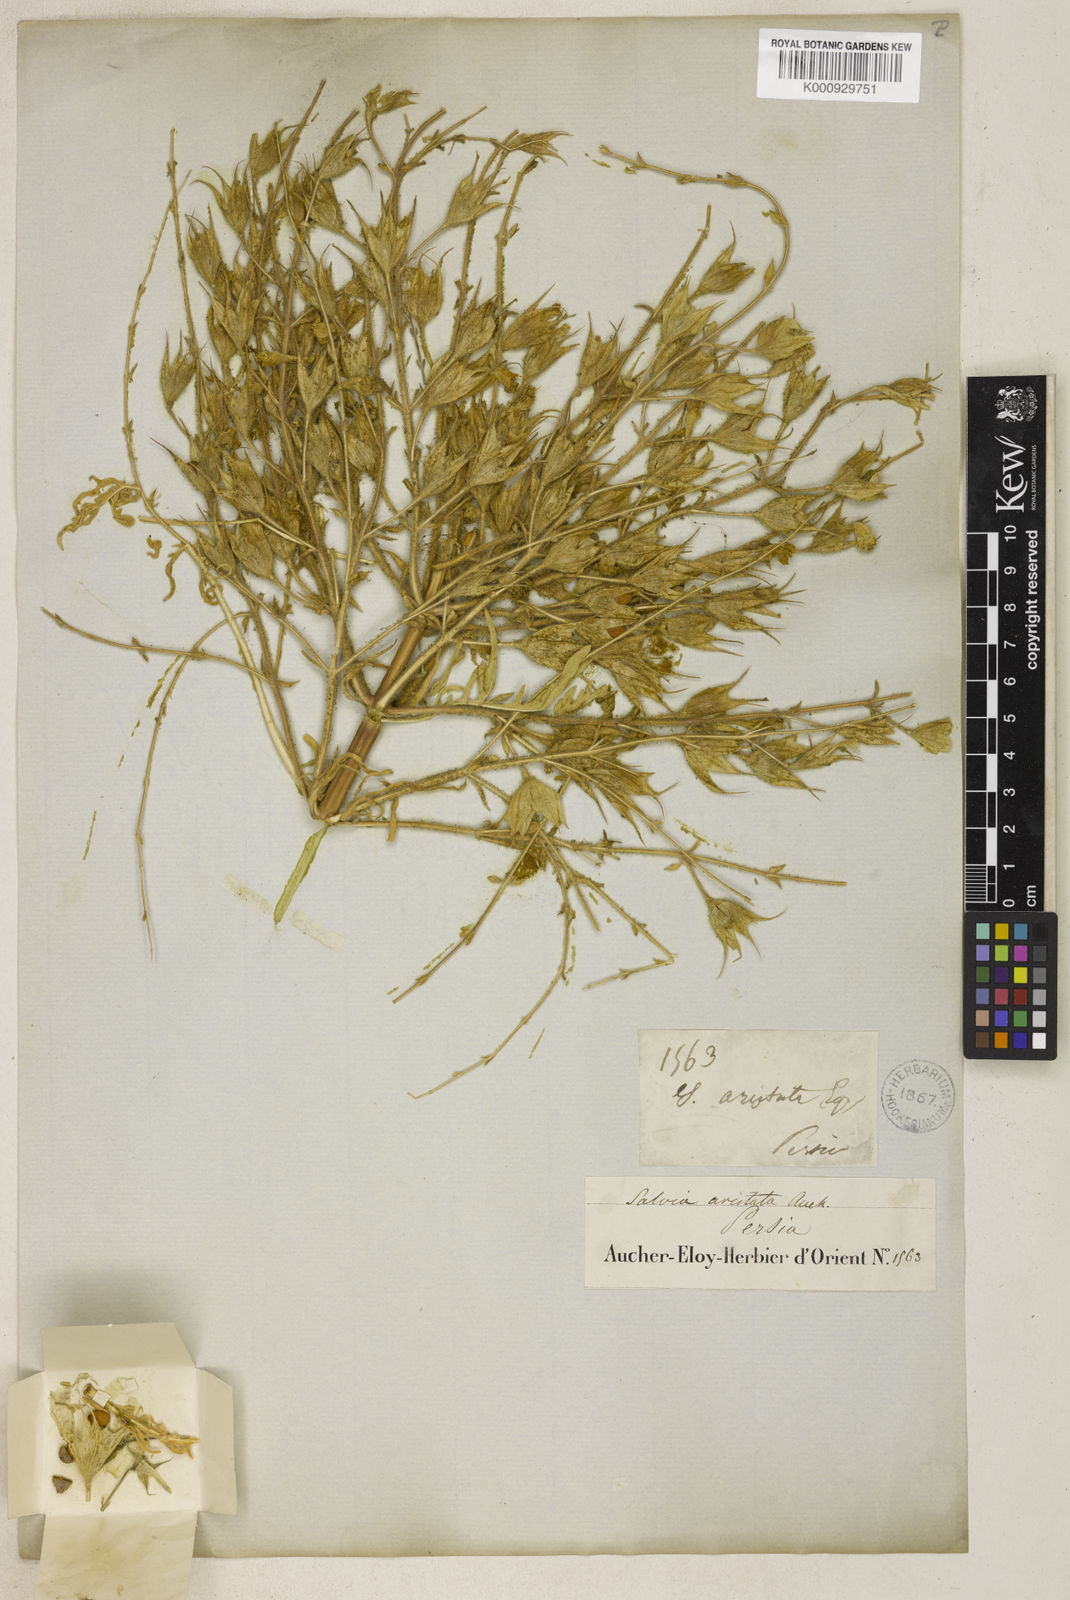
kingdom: Plantae
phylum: Tracheophyta
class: Magnoliopsida
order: Lamiales
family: Lamiaceae
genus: Salvia
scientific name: Salvia aristata
